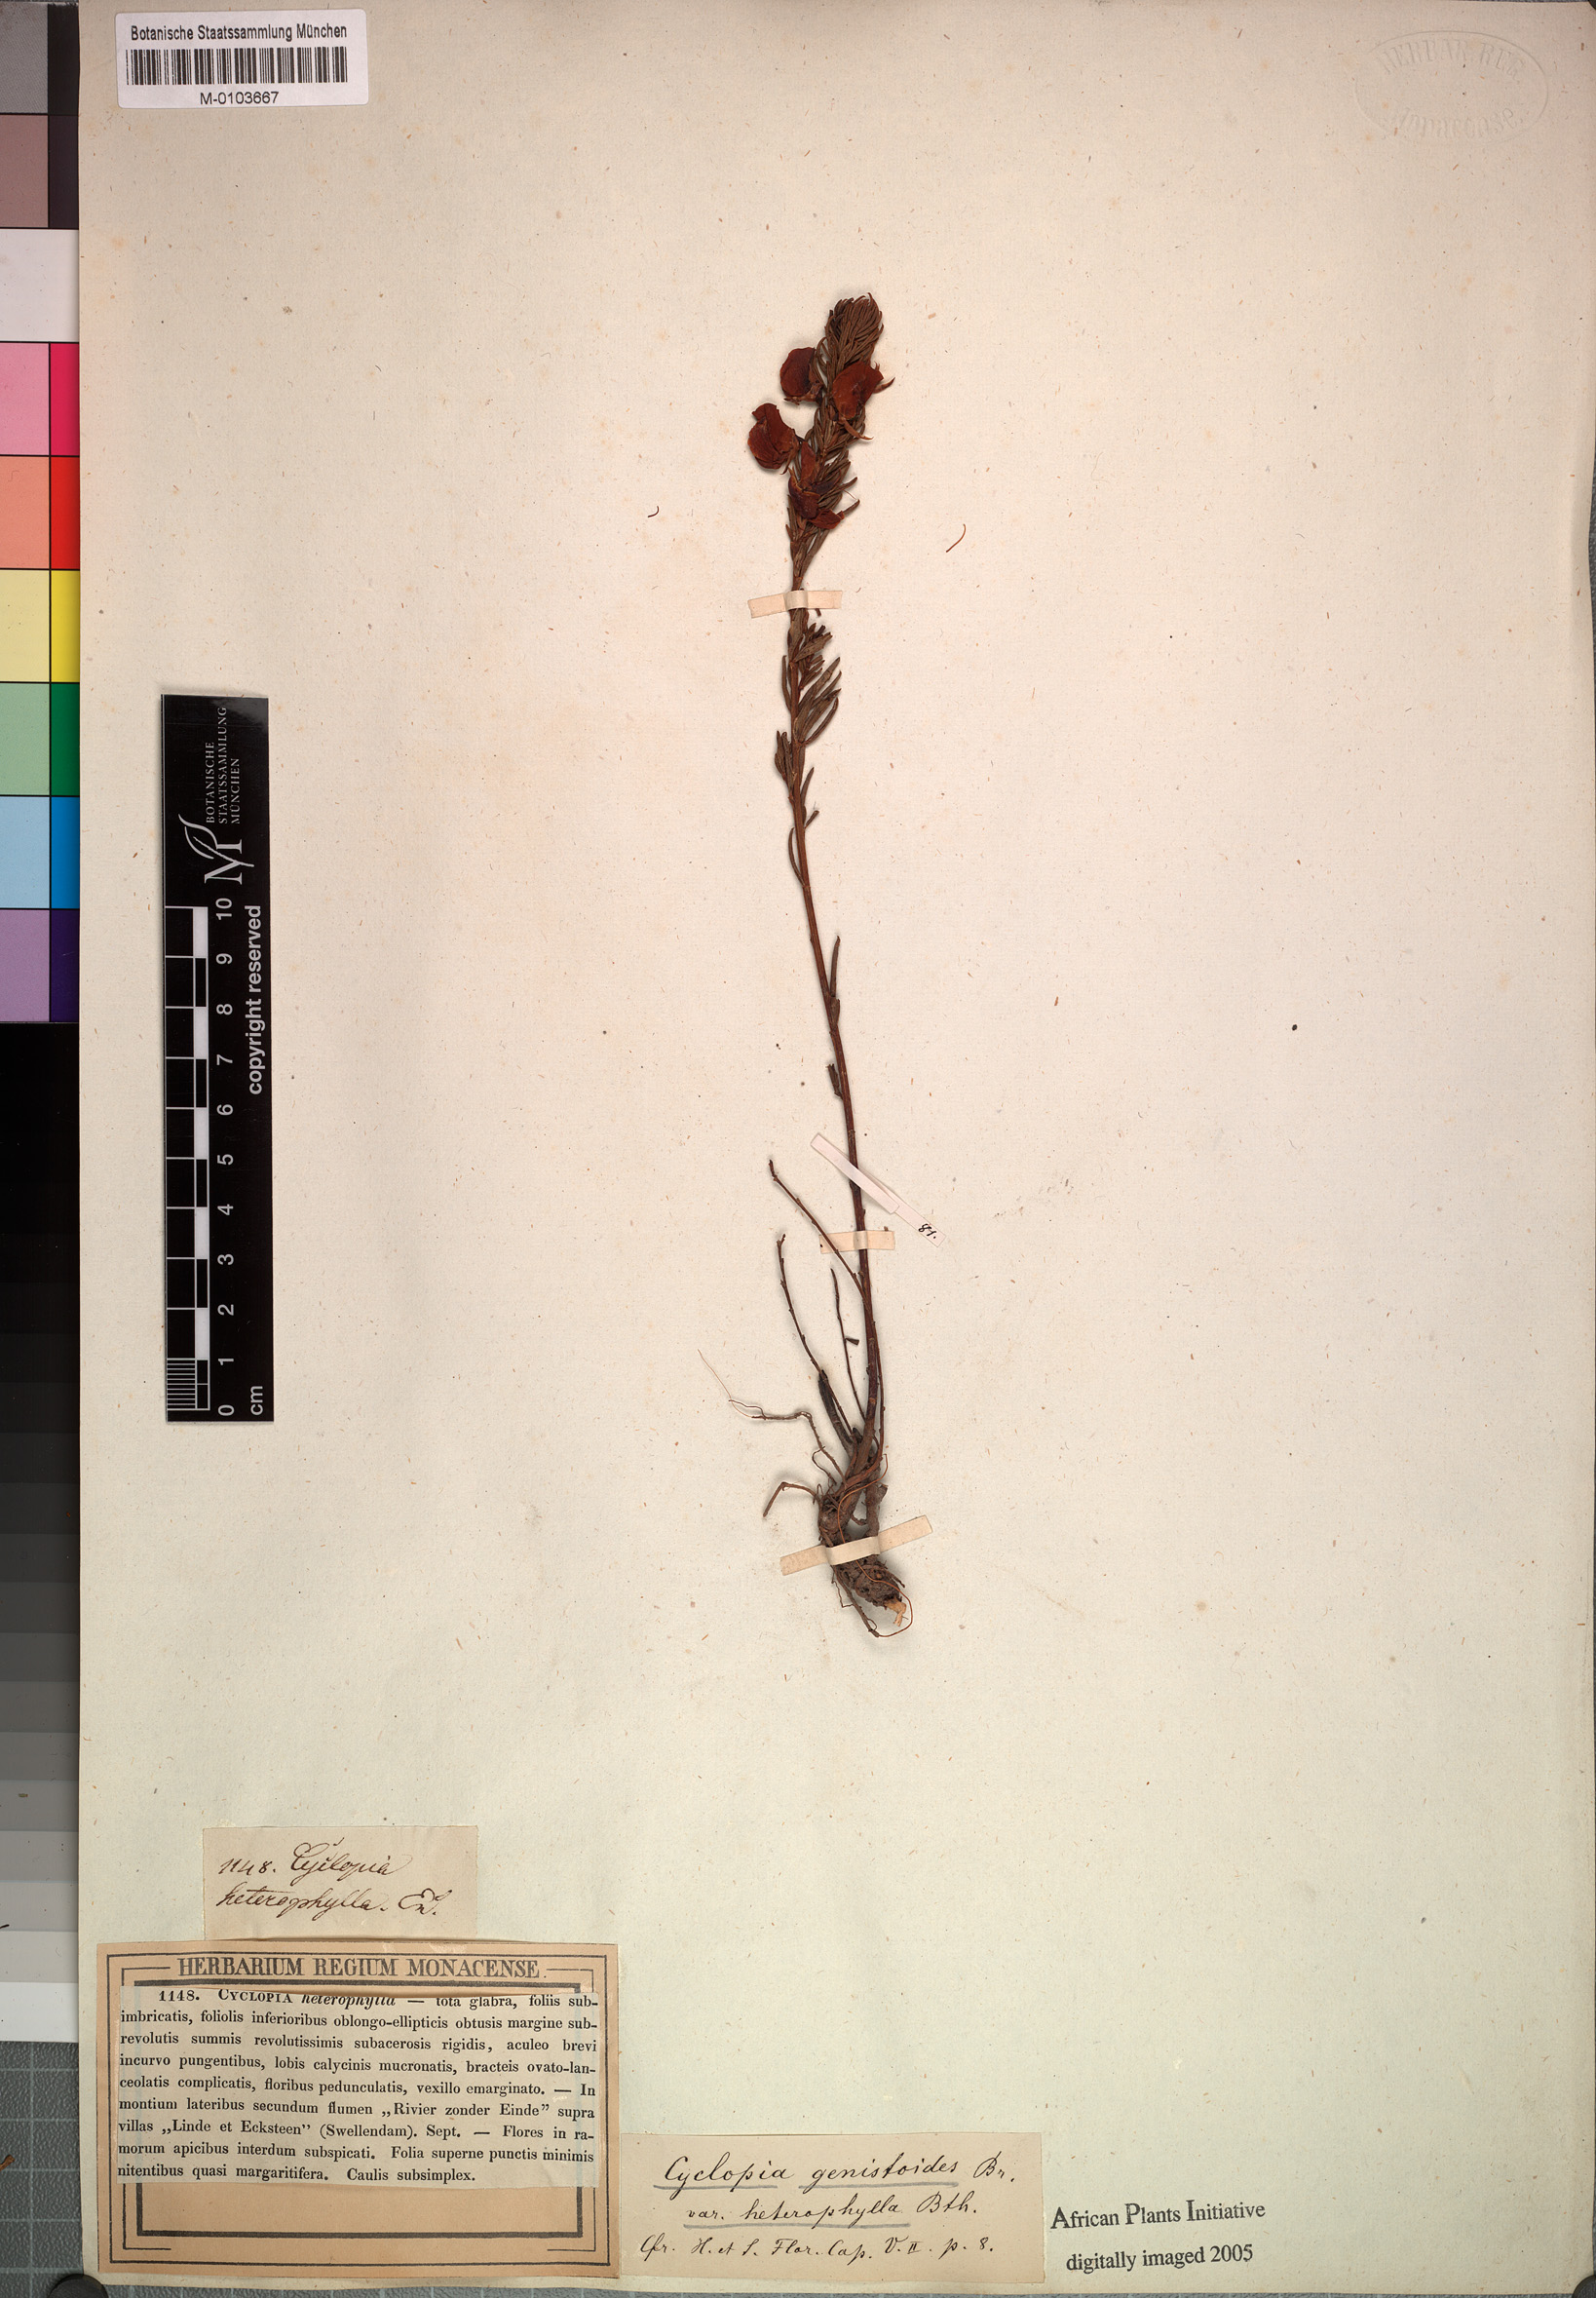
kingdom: Plantae
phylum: Tracheophyta
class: Magnoliopsida
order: Fabales
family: Fabaceae
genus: Cyclopia
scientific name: Cyclopia genistoides
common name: Honeybush tea
